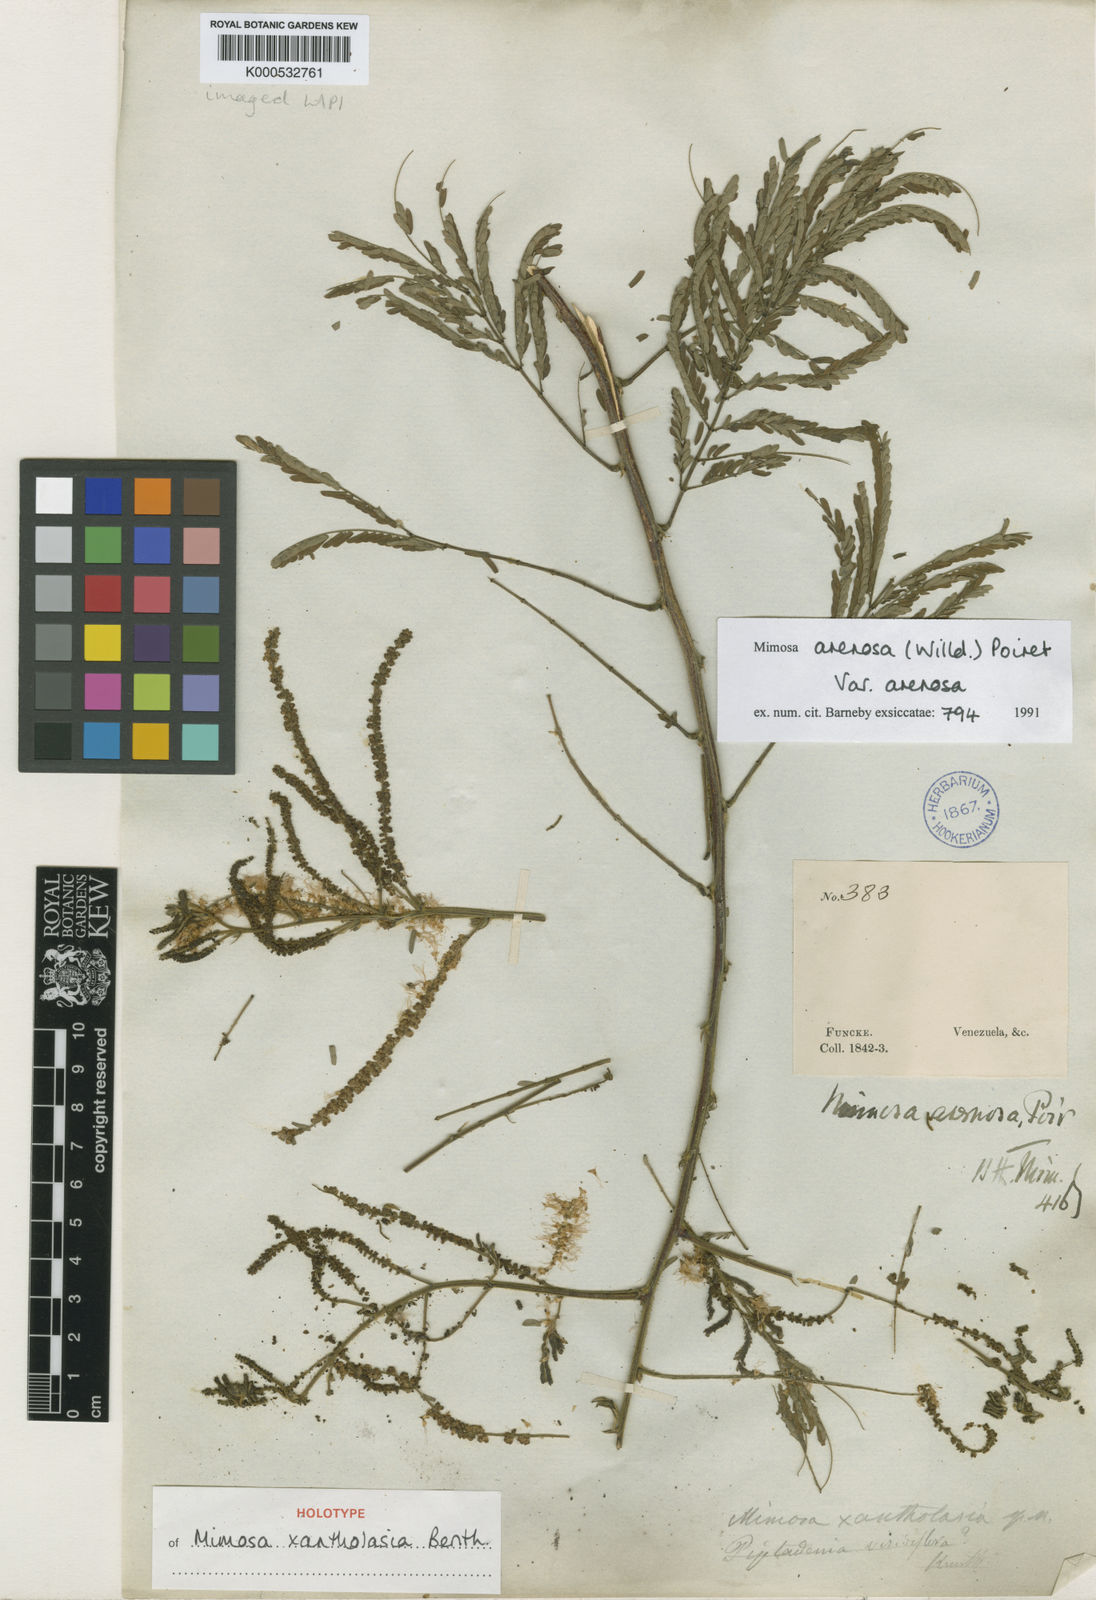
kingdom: Plantae
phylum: Tracheophyta
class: Magnoliopsida
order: Fabales
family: Fabaceae
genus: Mimosa
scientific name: Mimosa arenosa
